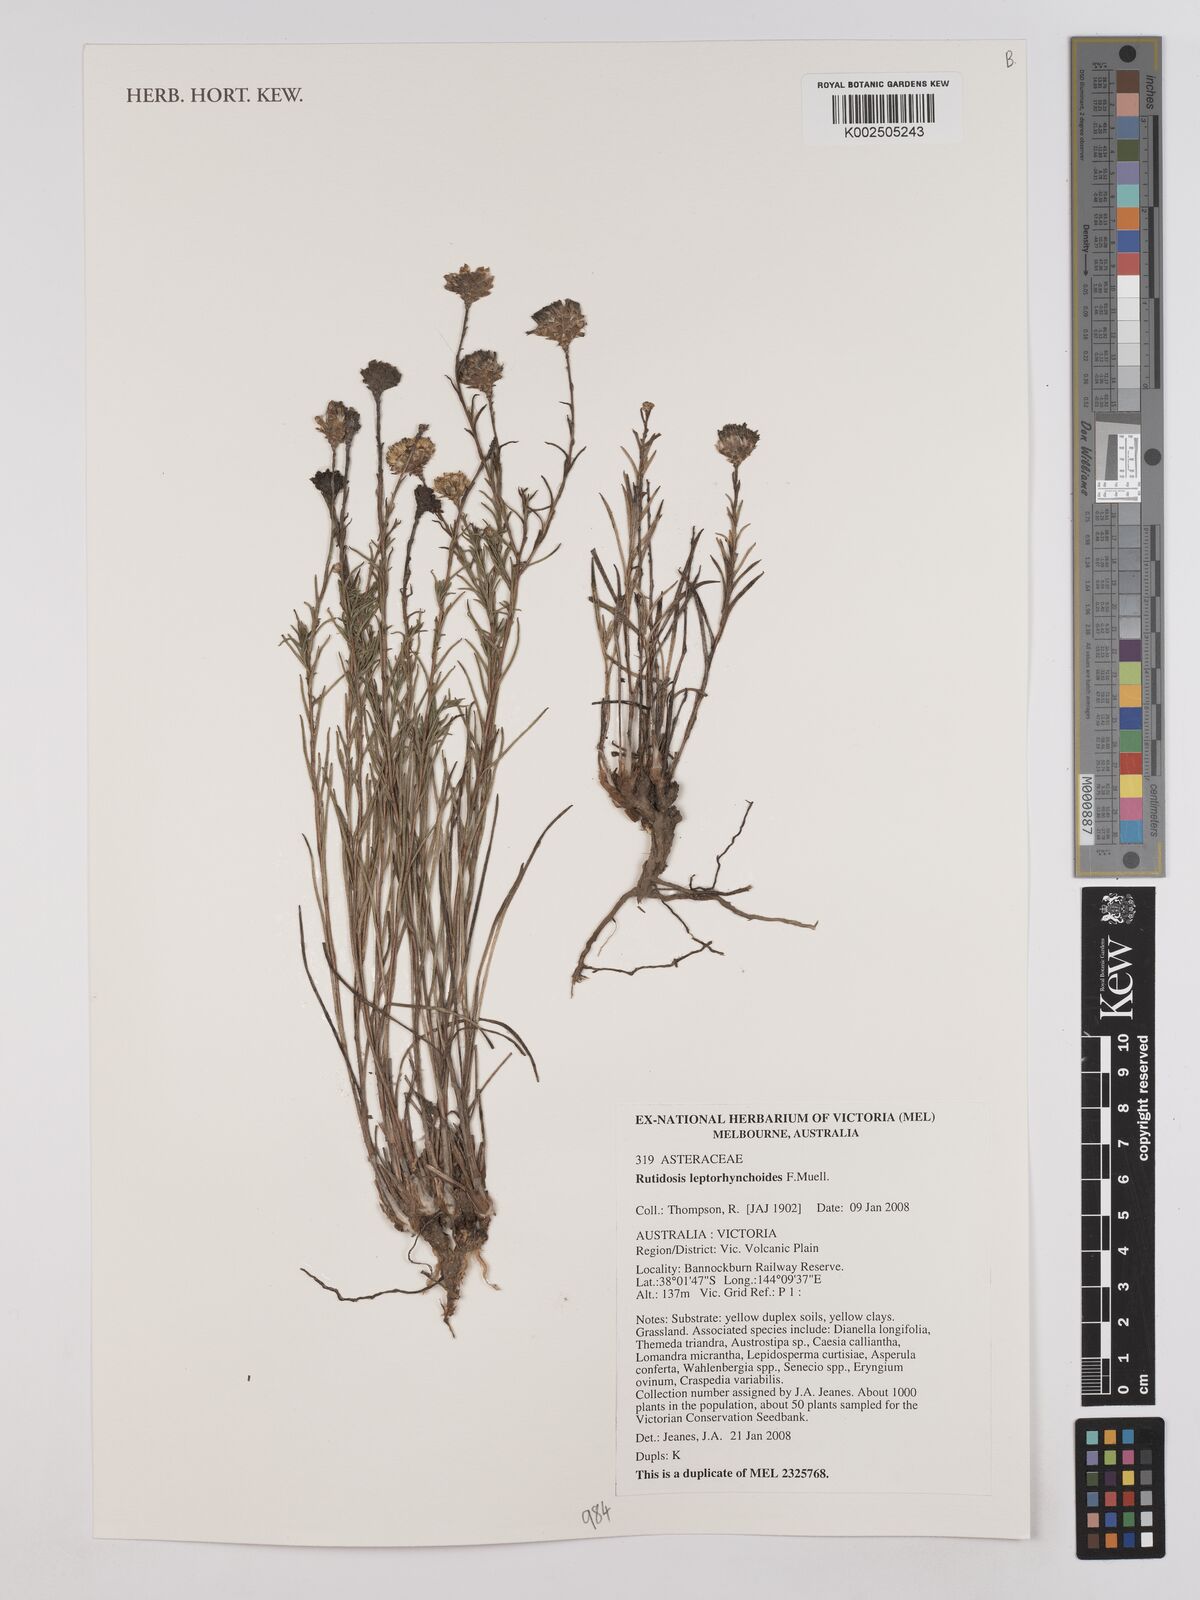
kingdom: Plantae
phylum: Tracheophyta
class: Magnoliopsida
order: Asterales
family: Asteraceae
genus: Rutidosis
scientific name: Rutidosis leptorrhynchoides
